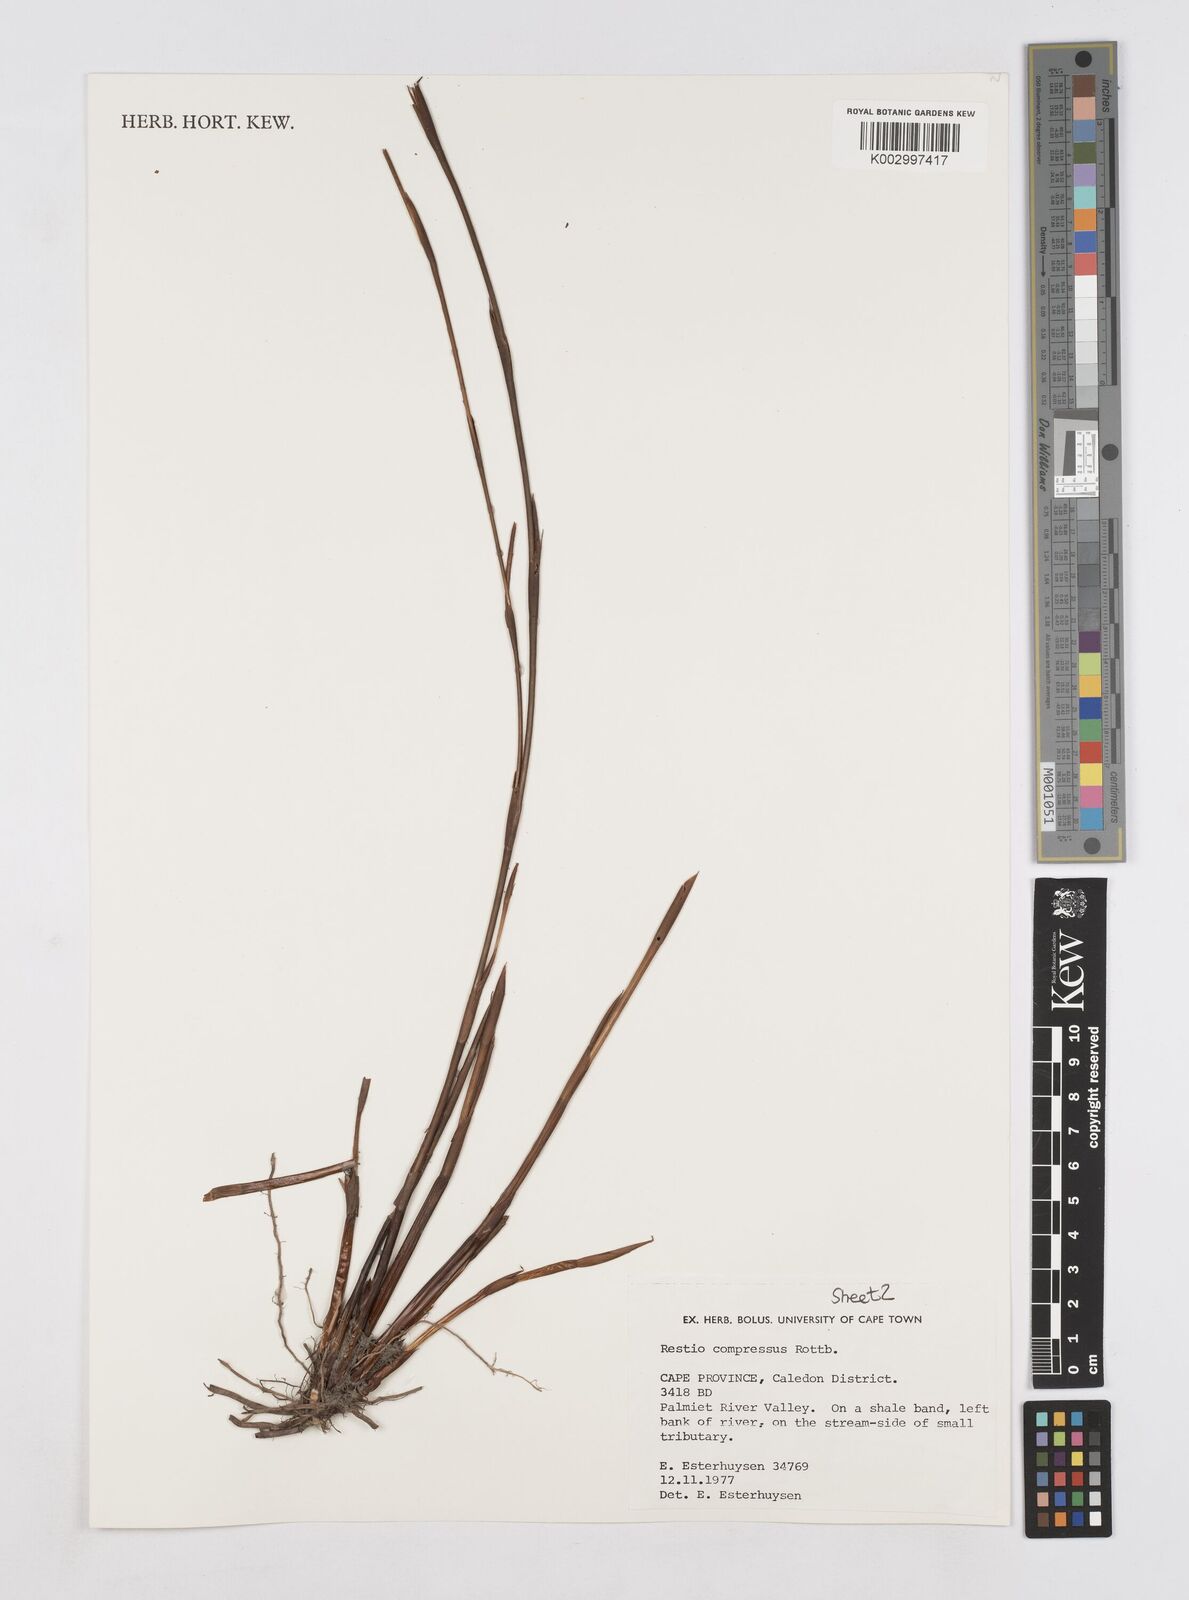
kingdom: Plantae
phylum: Tracheophyta
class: Liliopsida
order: Poales
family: Restionaceae
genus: Platycaulos
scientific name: Platycaulos compressus
